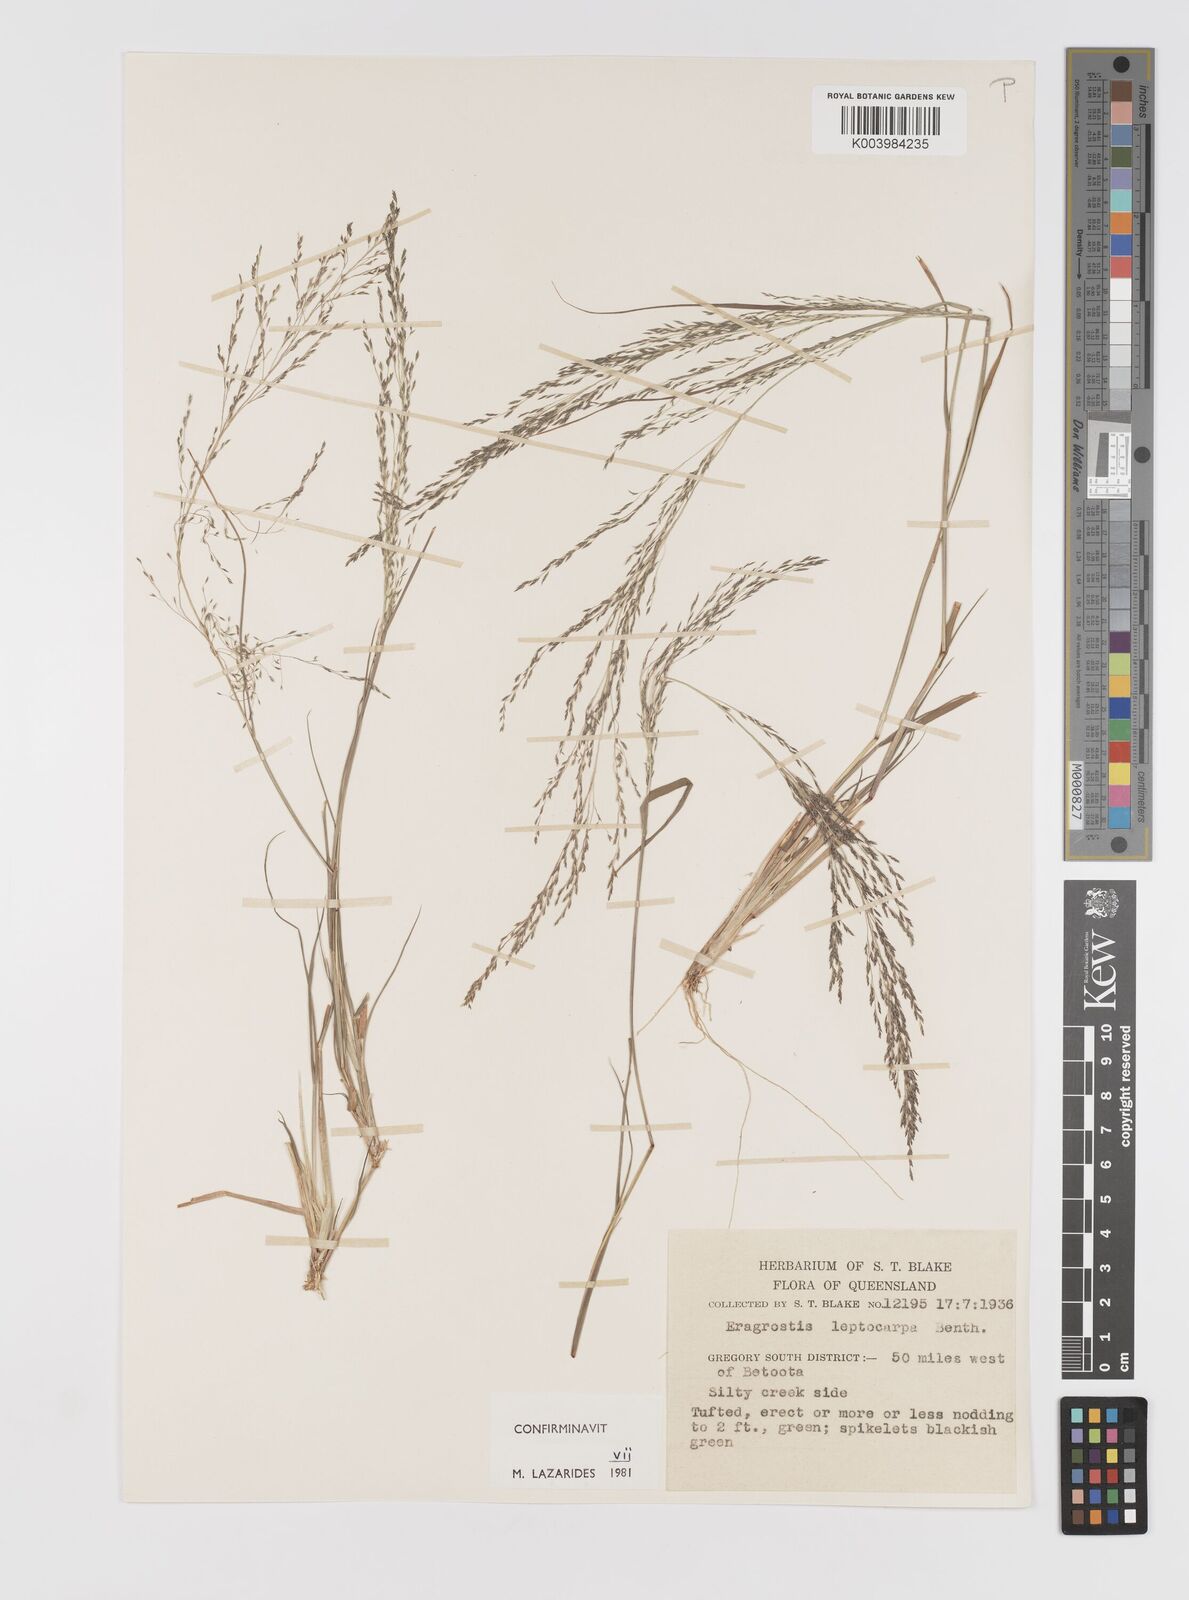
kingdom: Plantae
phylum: Tracheophyta
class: Liliopsida
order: Poales
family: Poaceae
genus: Eragrostis
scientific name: Eragrostis leptocarpa
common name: Drooping love grass
